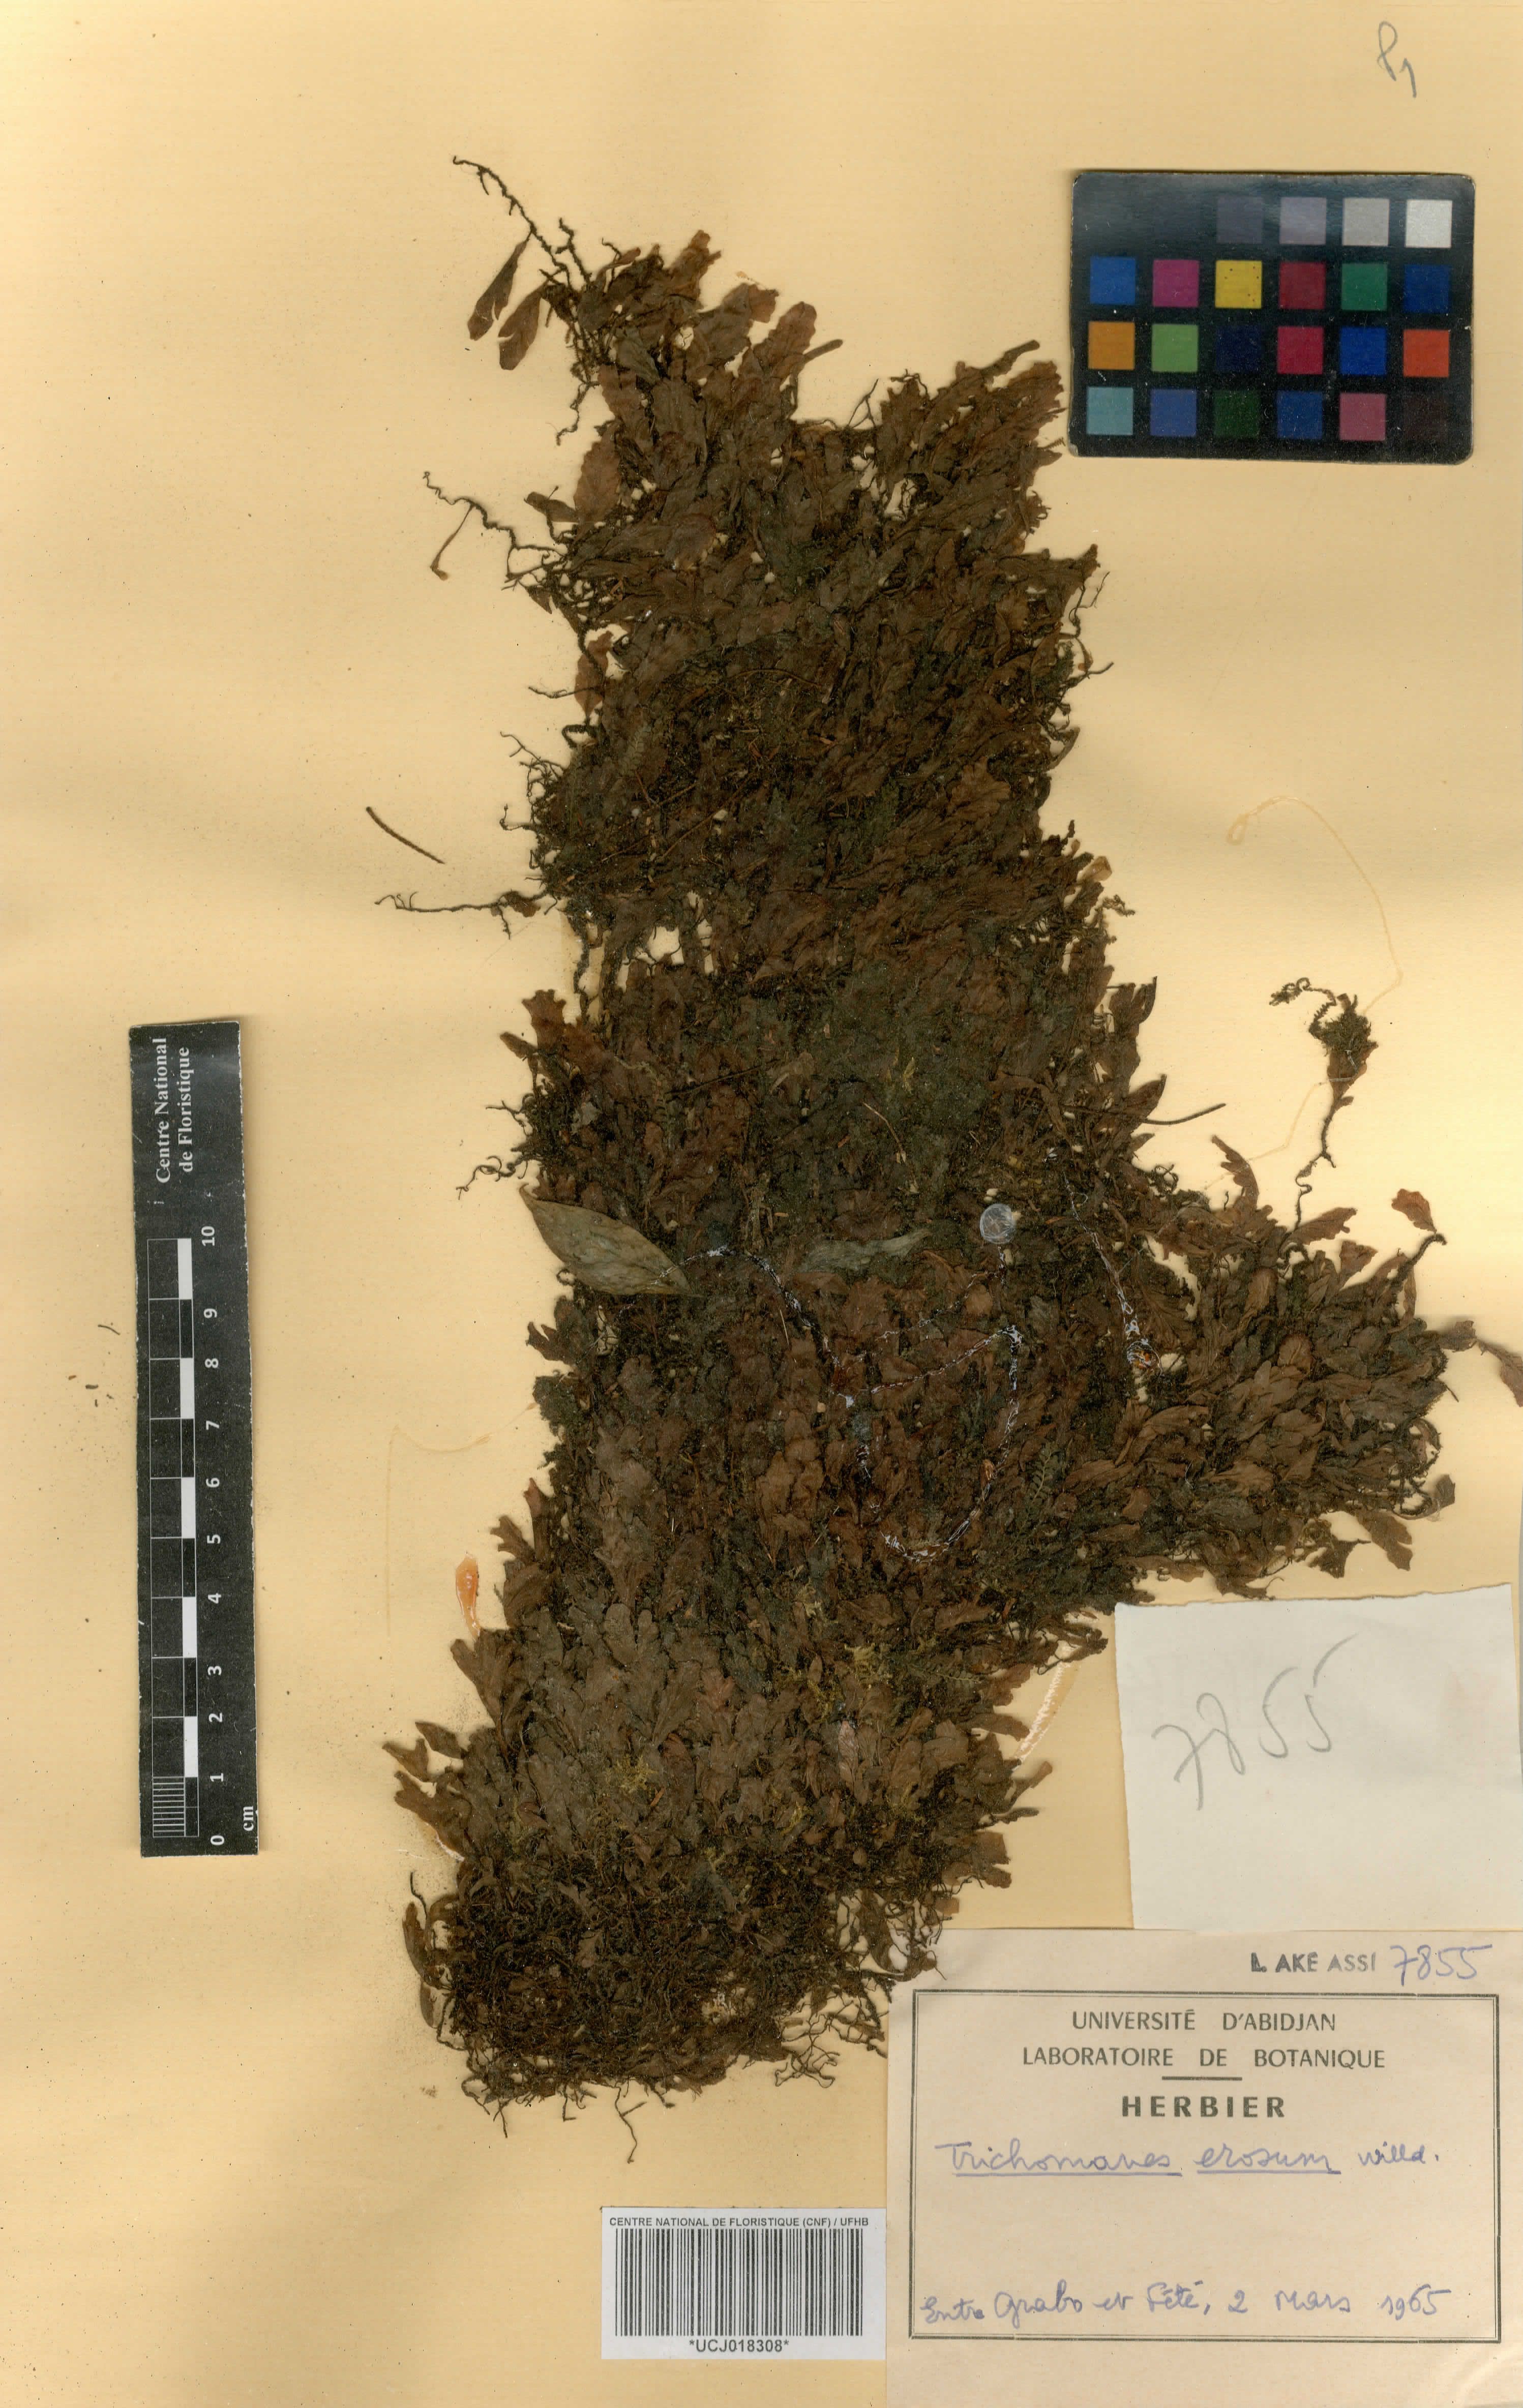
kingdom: Plantae
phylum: Tracheophyta
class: Polypodiopsida
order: Hymenophyllales
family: Hymenophyllaceae
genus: Didymoglossum
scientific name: Didymoglossum erosum
